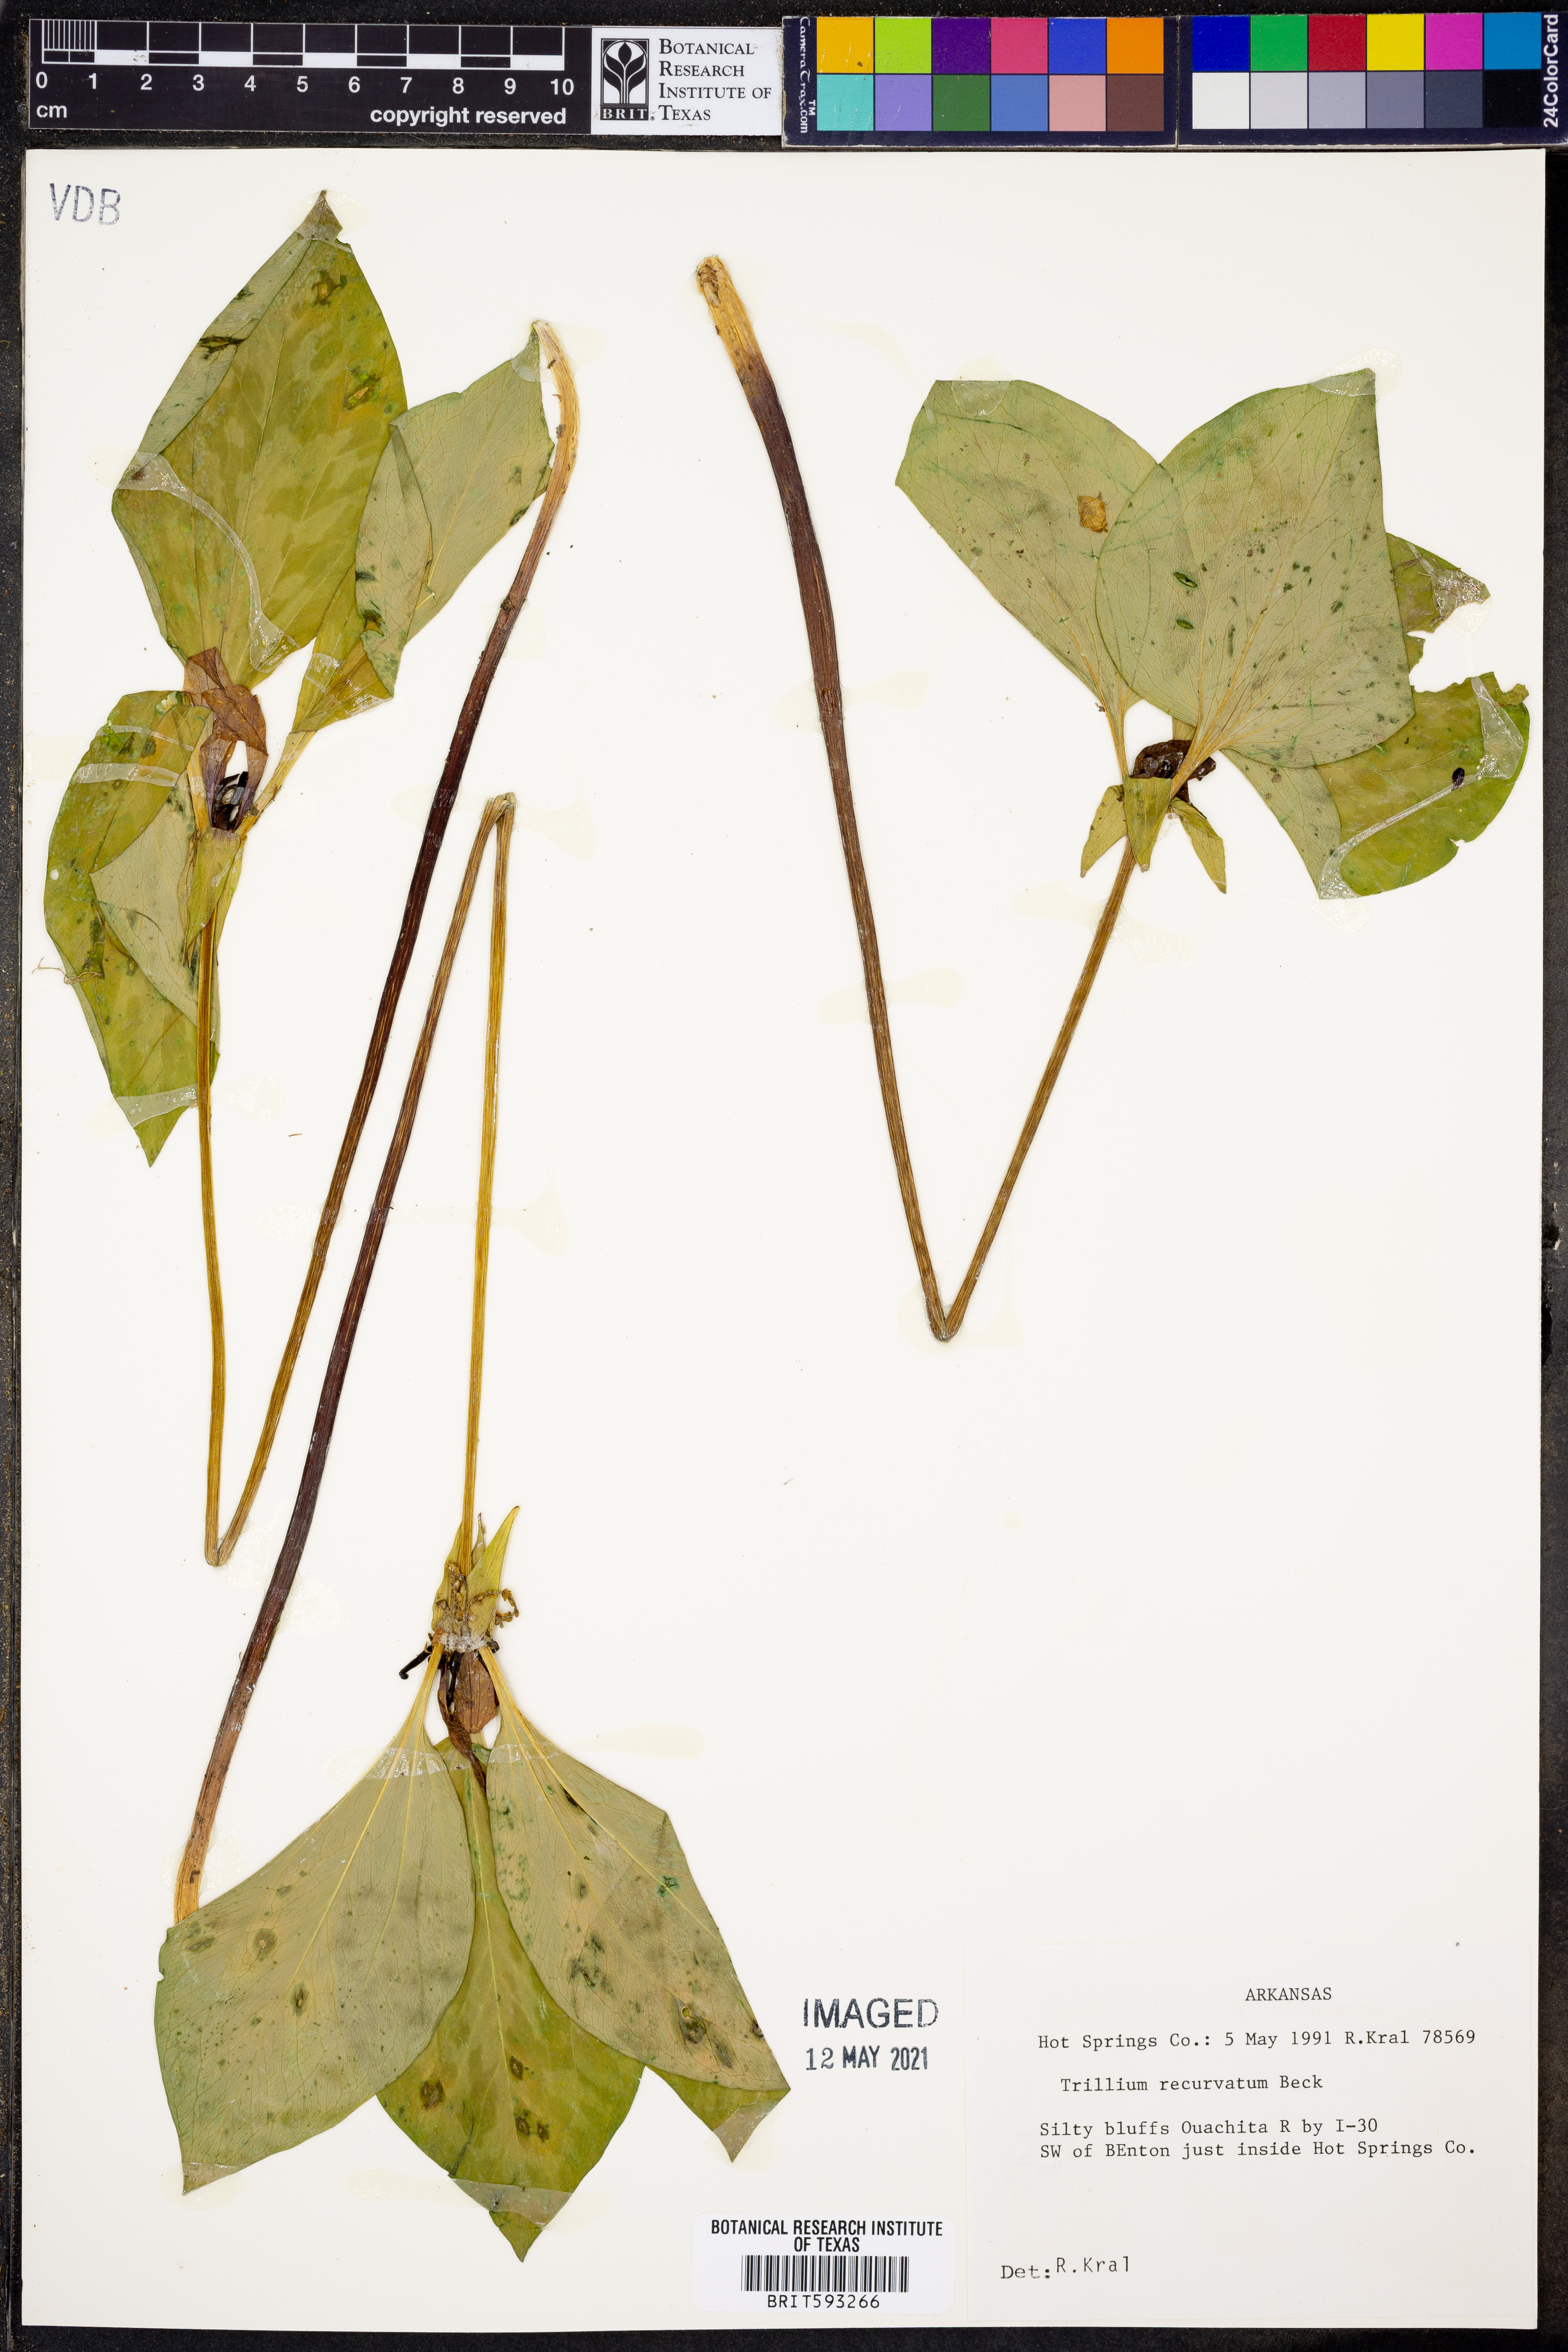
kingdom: Plantae
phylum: Tracheophyta
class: Liliopsida
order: Liliales
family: Melanthiaceae
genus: Trillium
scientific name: Trillium recurvatum
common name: Bloody butcher
